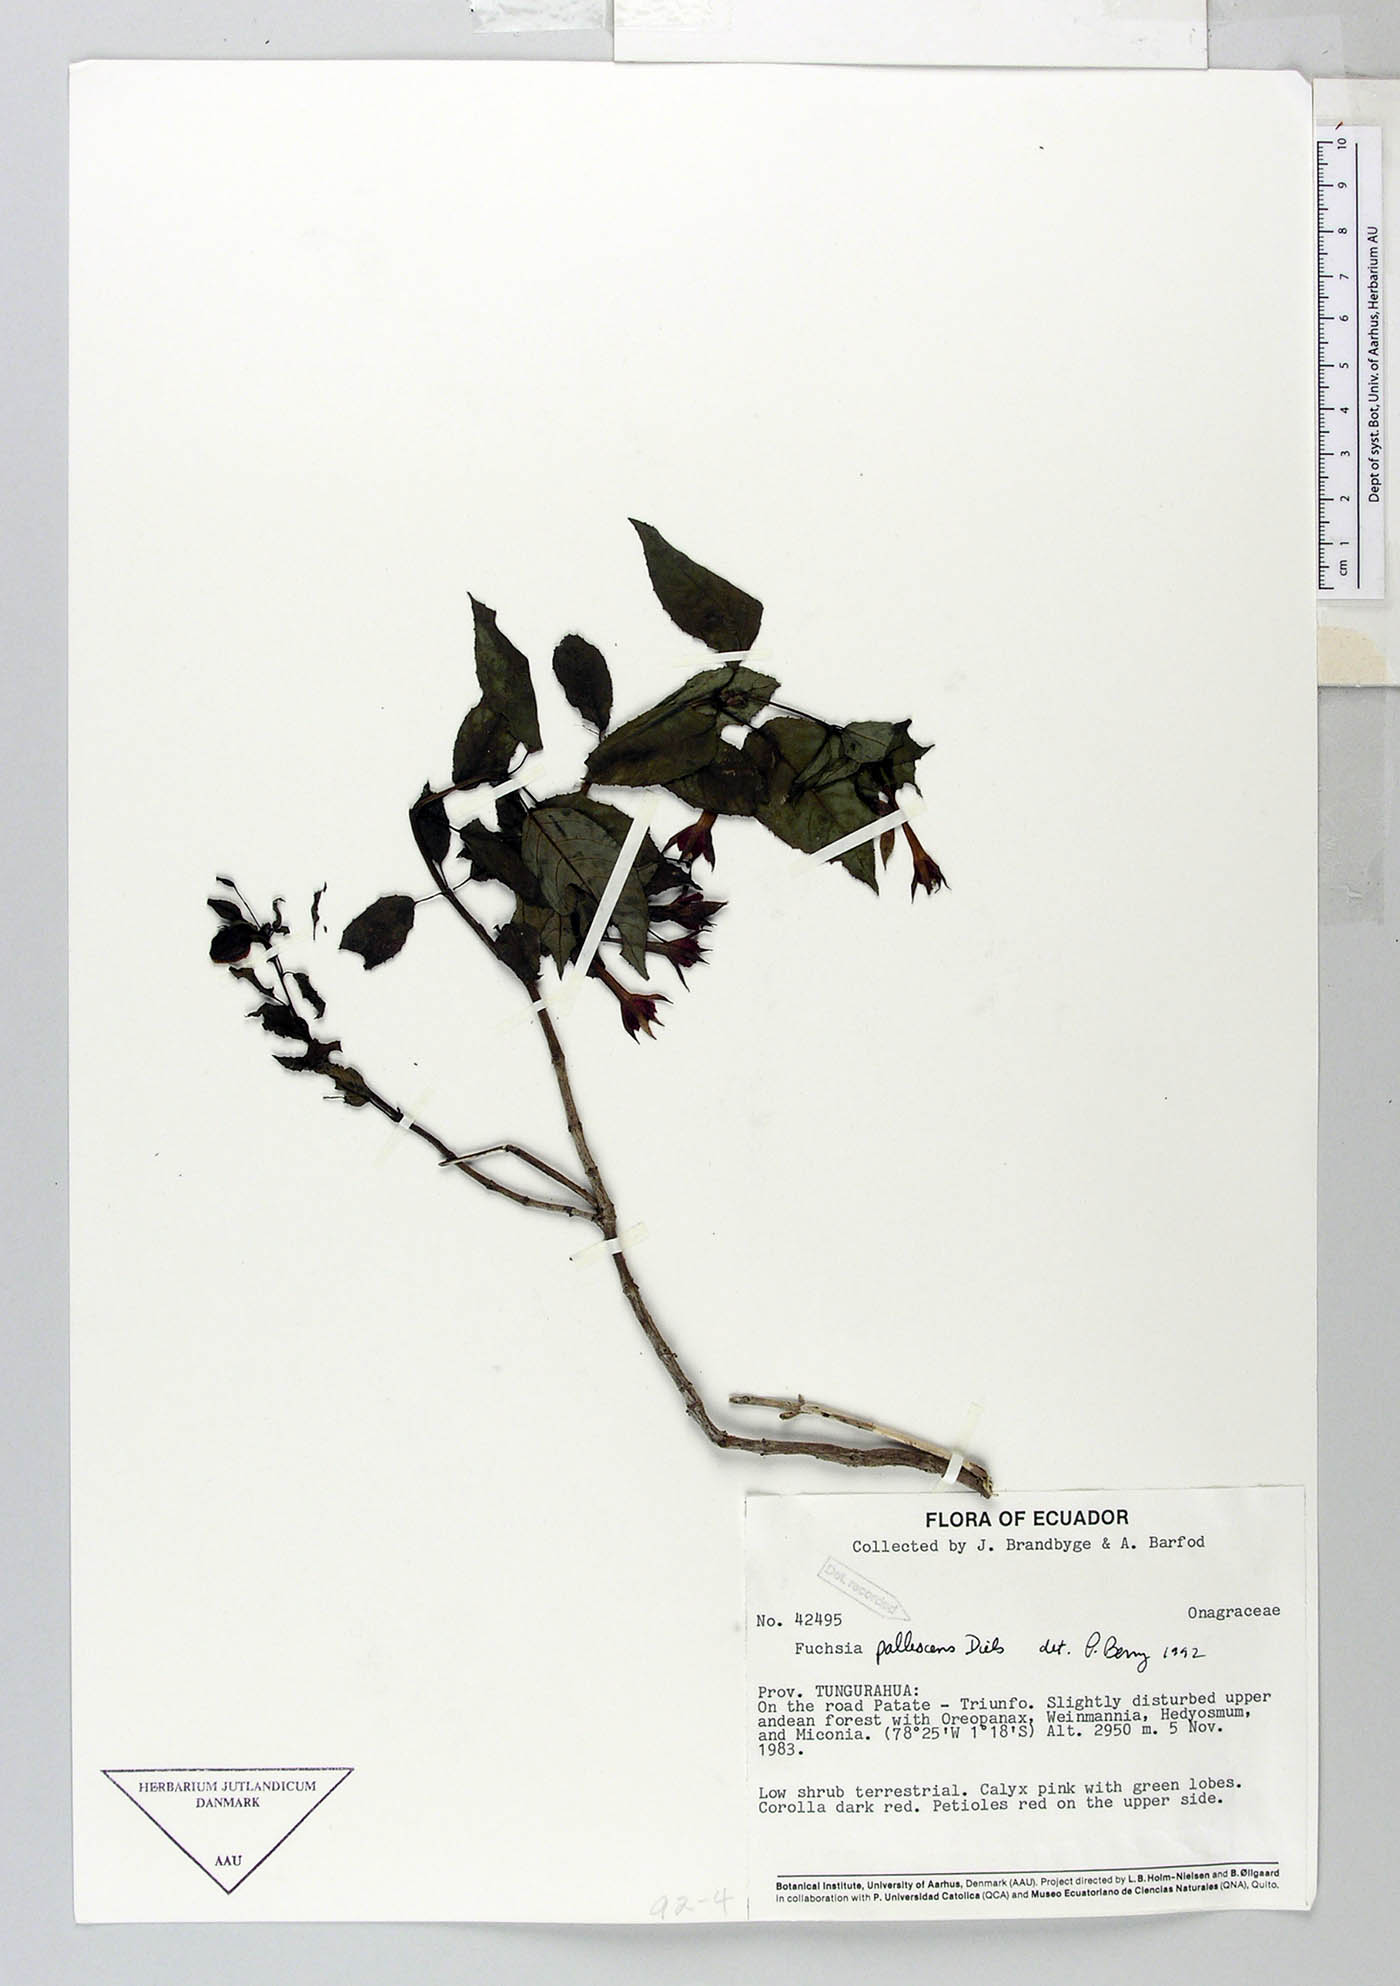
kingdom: Plantae
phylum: Tracheophyta
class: Magnoliopsida
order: Myrtales
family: Onagraceae
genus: Fuchsia
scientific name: Fuchsia pallescens
